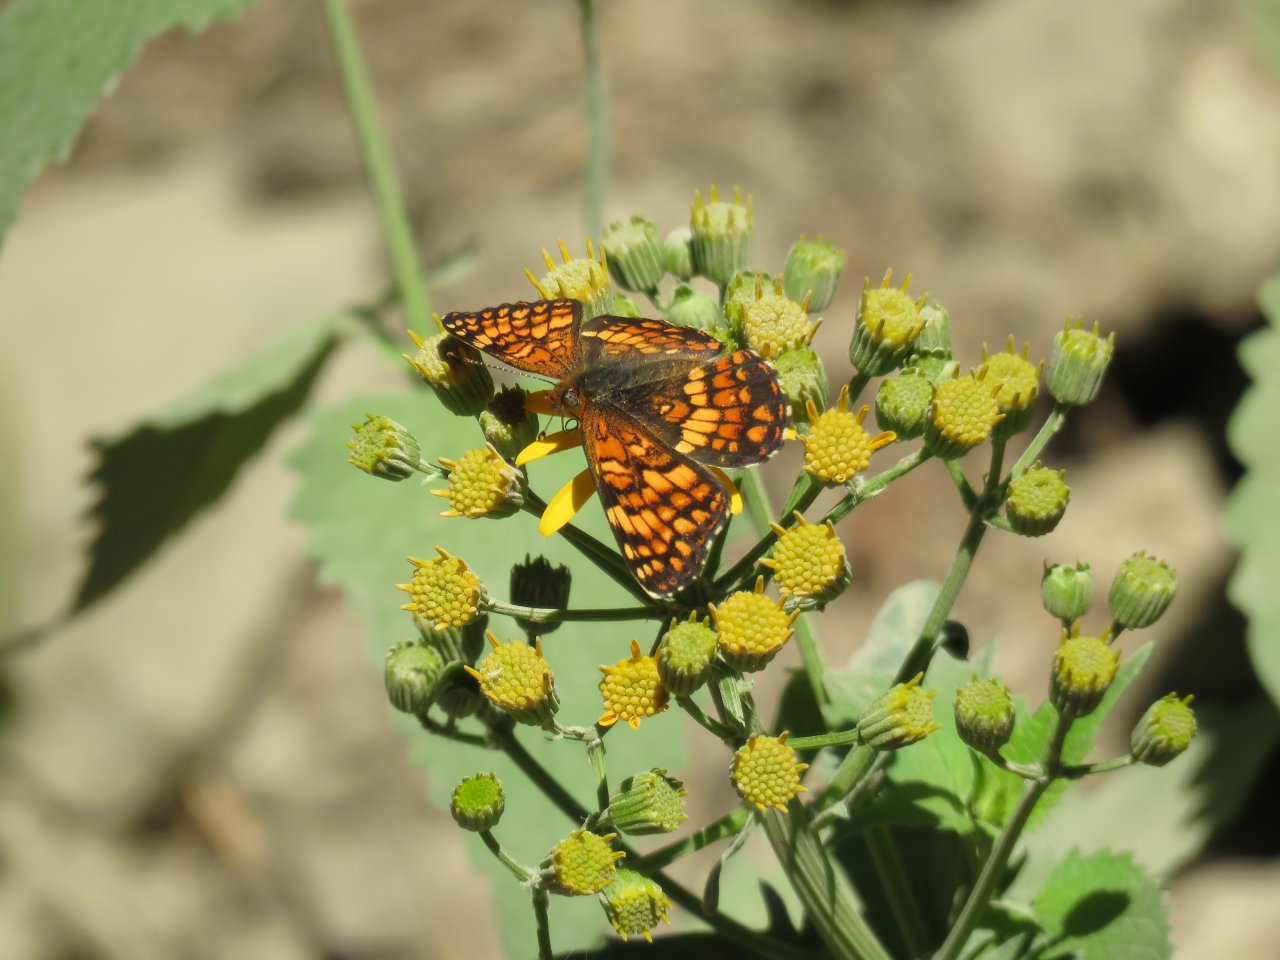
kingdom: Animalia
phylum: Arthropoda
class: Insecta
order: Lepidoptera
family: Nymphalidae
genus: Chlosyne
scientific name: Chlosyne palla
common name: Northern Checkerspot
